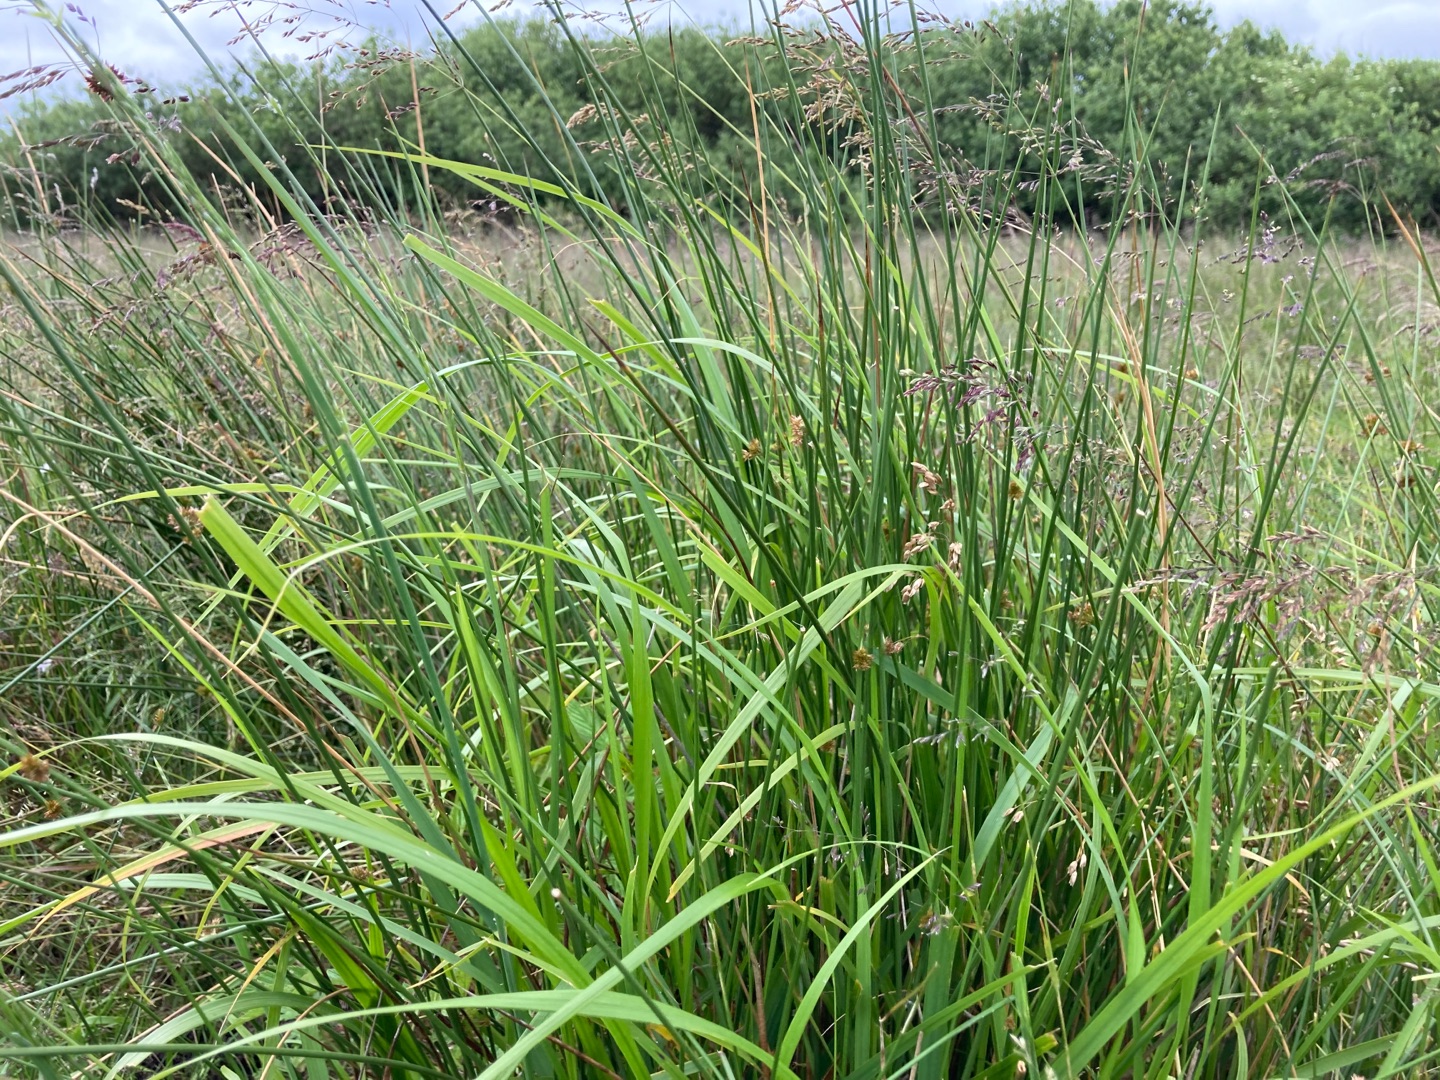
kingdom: Plantae
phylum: Tracheophyta
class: Liliopsida
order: Poales
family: Poaceae
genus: Anthoxanthum
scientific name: Anthoxanthum nitens
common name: Festgræs
